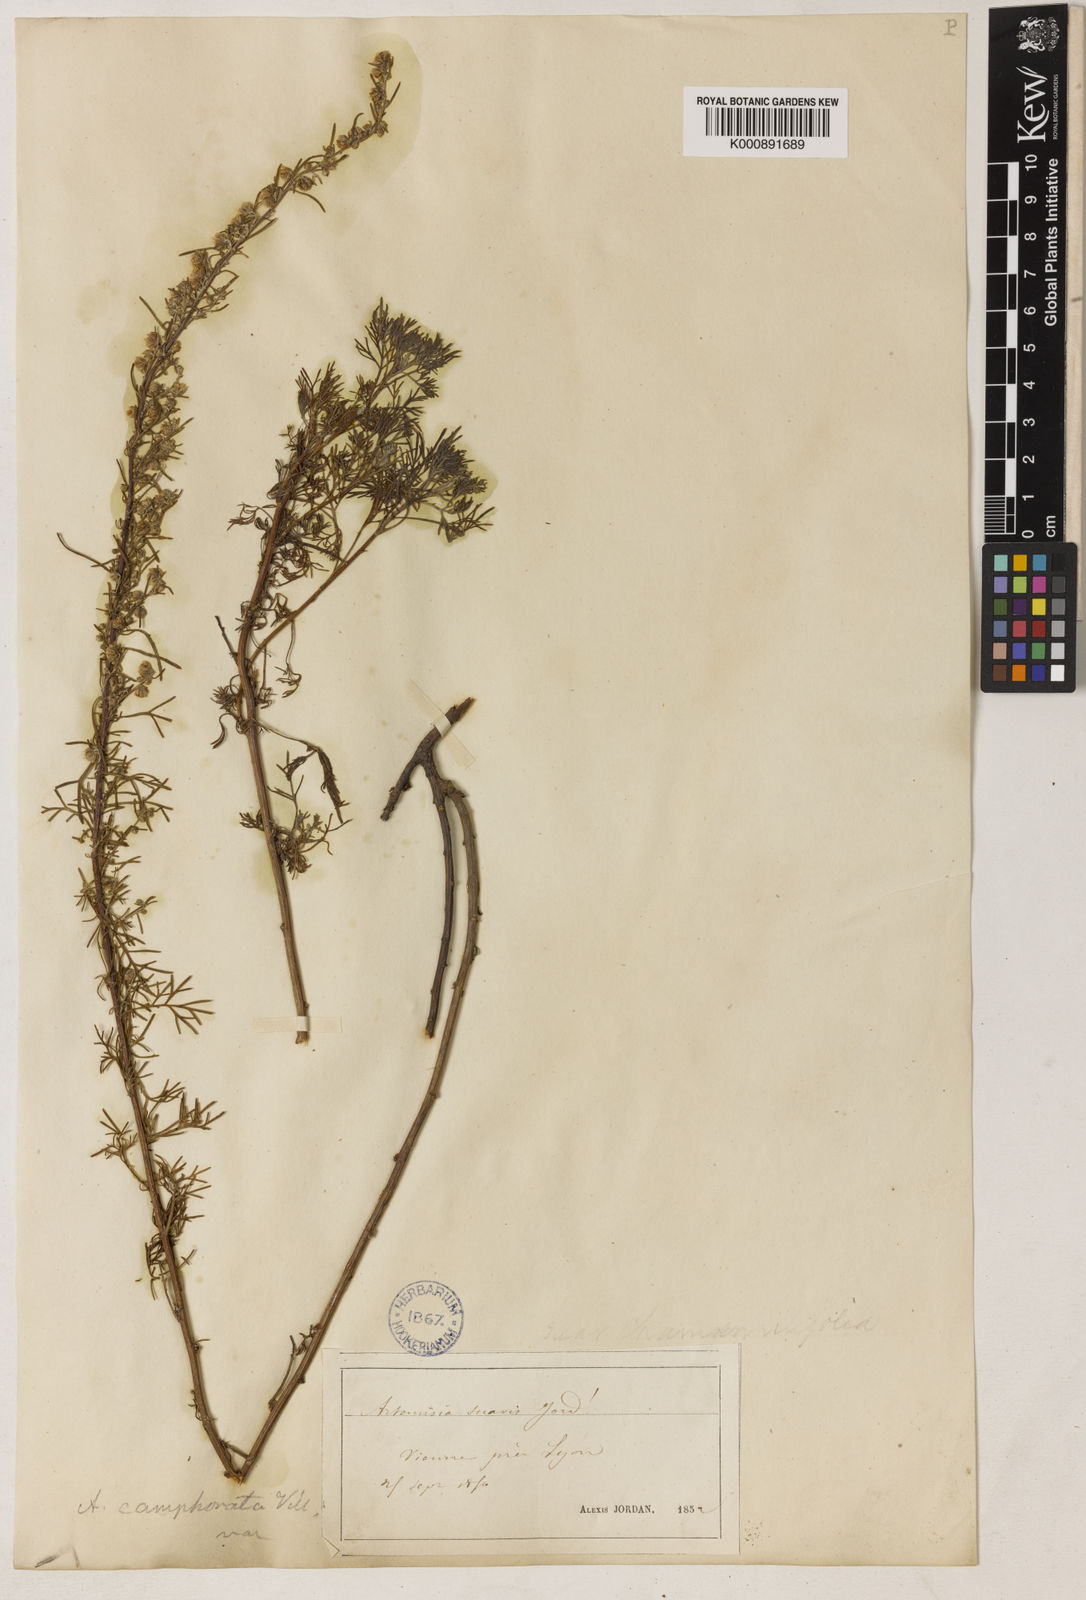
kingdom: Plantae
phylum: Tracheophyta
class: Magnoliopsida
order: Asterales
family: Asteraceae
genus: Artemisia
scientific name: Artemisia alba
